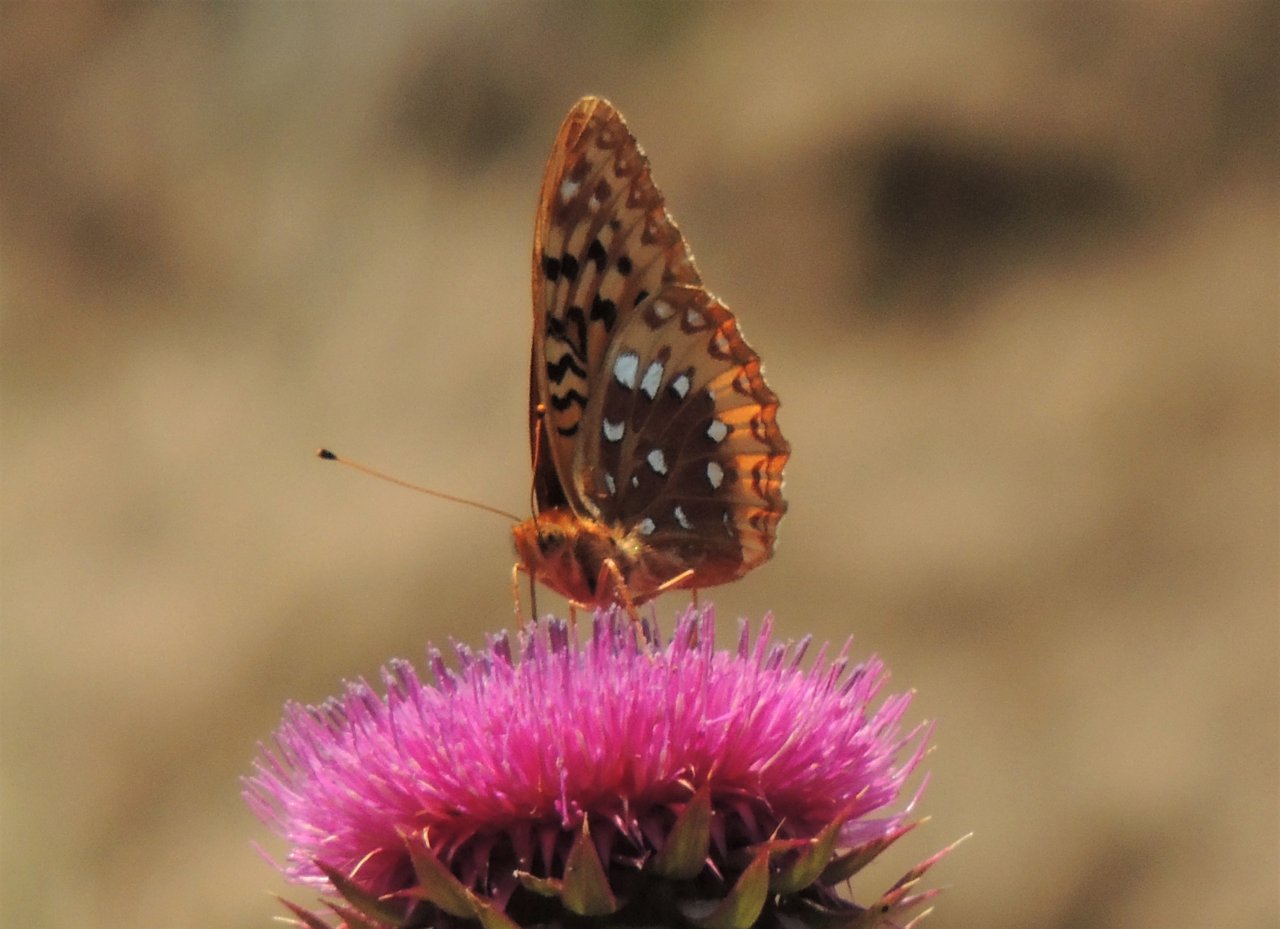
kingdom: Animalia
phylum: Arthropoda
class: Insecta
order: Lepidoptera
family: Nymphalidae
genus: Speyeria
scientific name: Speyeria cybele
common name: Great Spangled Fritillary
